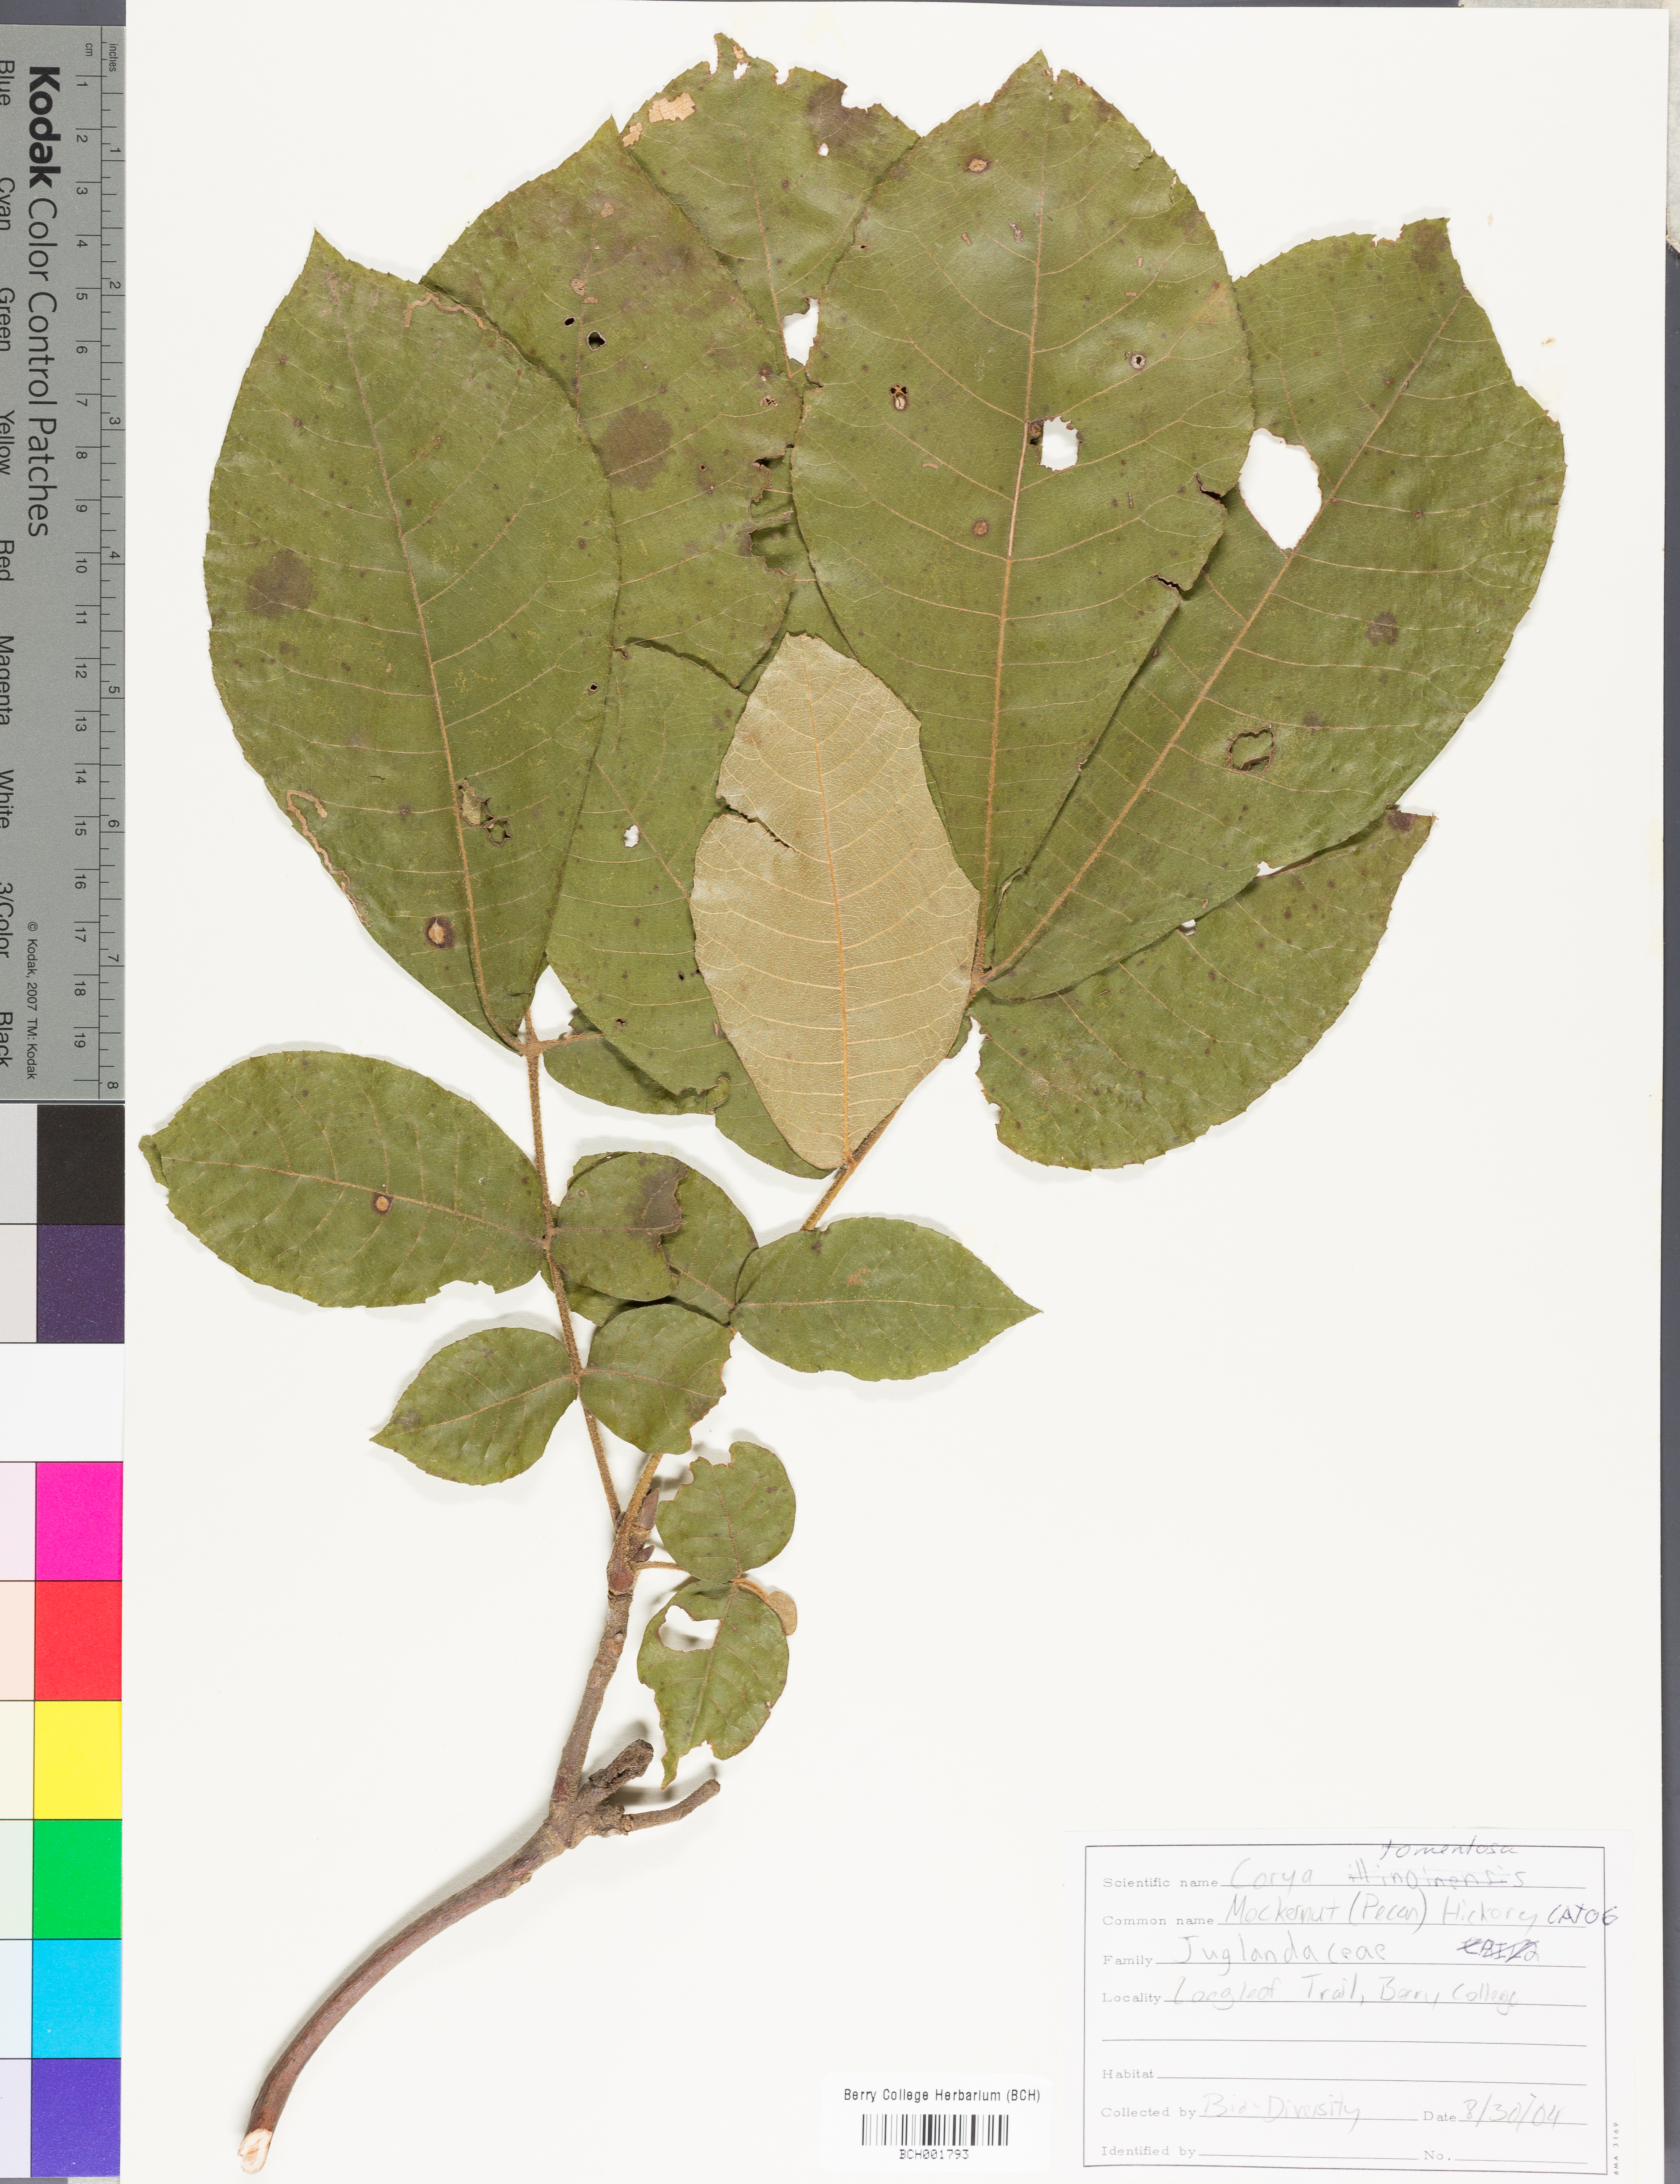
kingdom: Plantae
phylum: Tracheophyta
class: Magnoliopsida
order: Fagales
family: Juglandaceae
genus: Carya
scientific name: Carya alba
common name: Mockernut hickory
